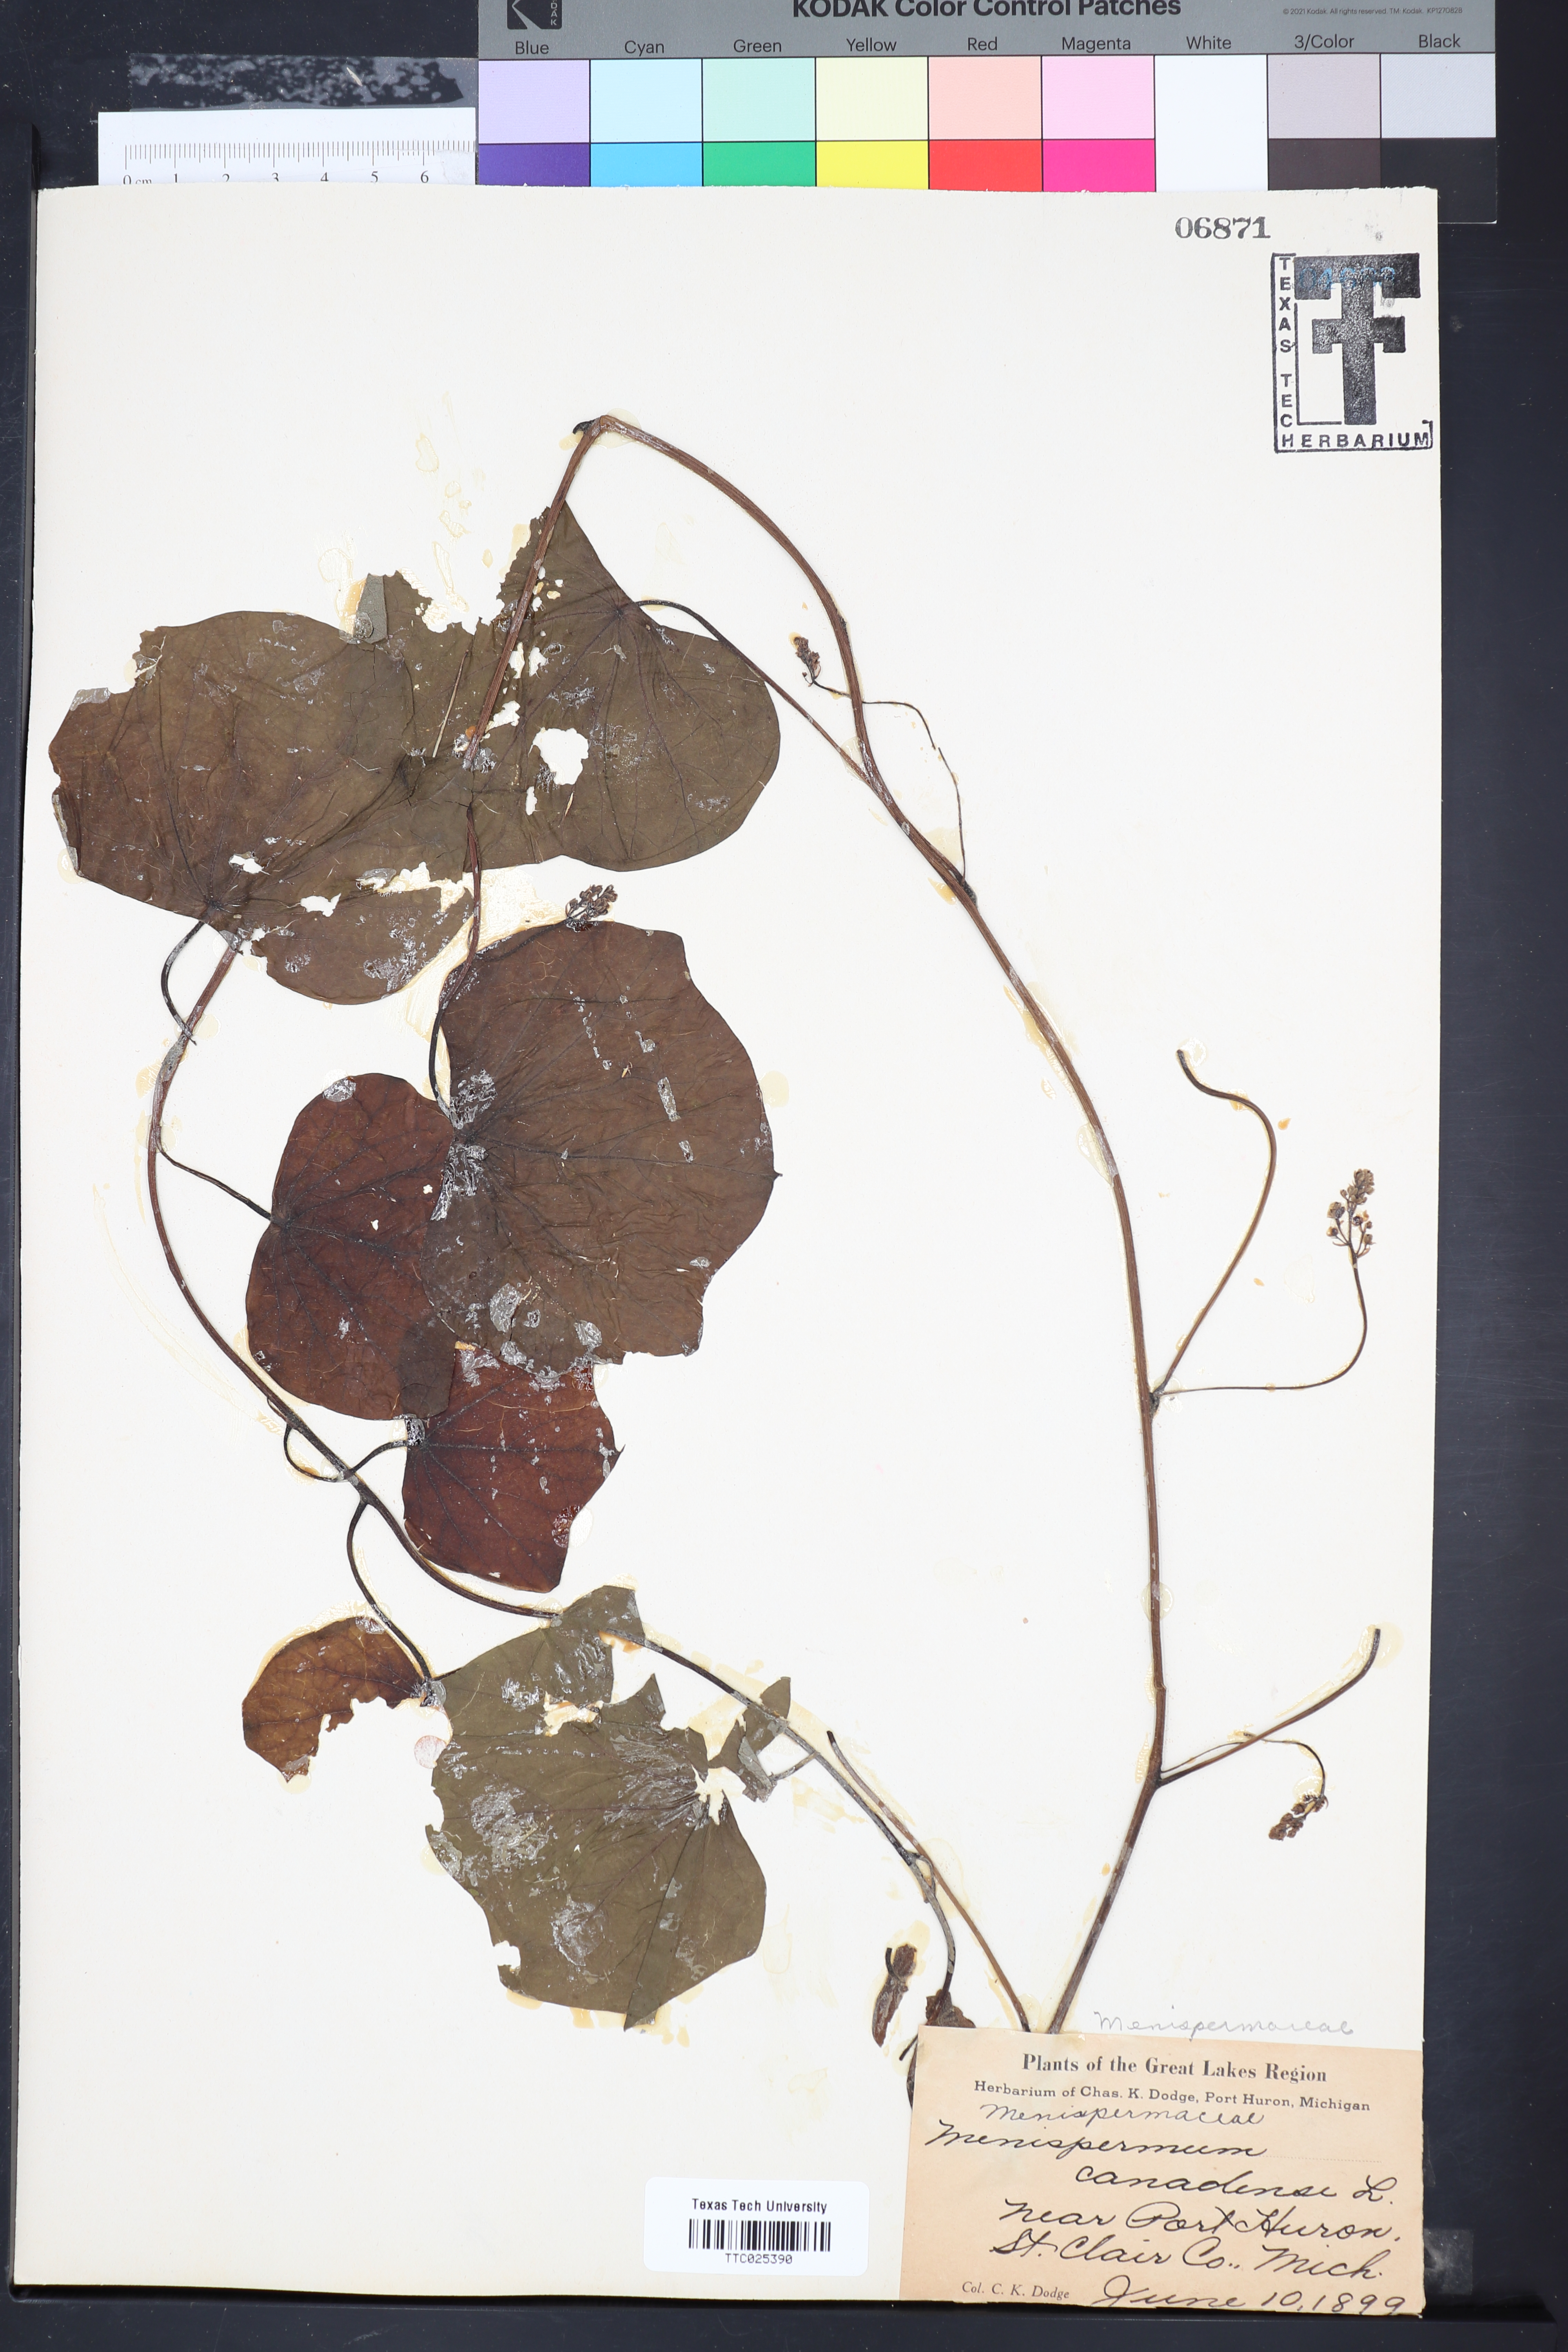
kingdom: Plantae
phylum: Tracheophyta
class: Magnoliopsida
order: Ranunculales
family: Menispermaceae
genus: Menispermum
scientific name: Menispermum canadense
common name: Moonseed
